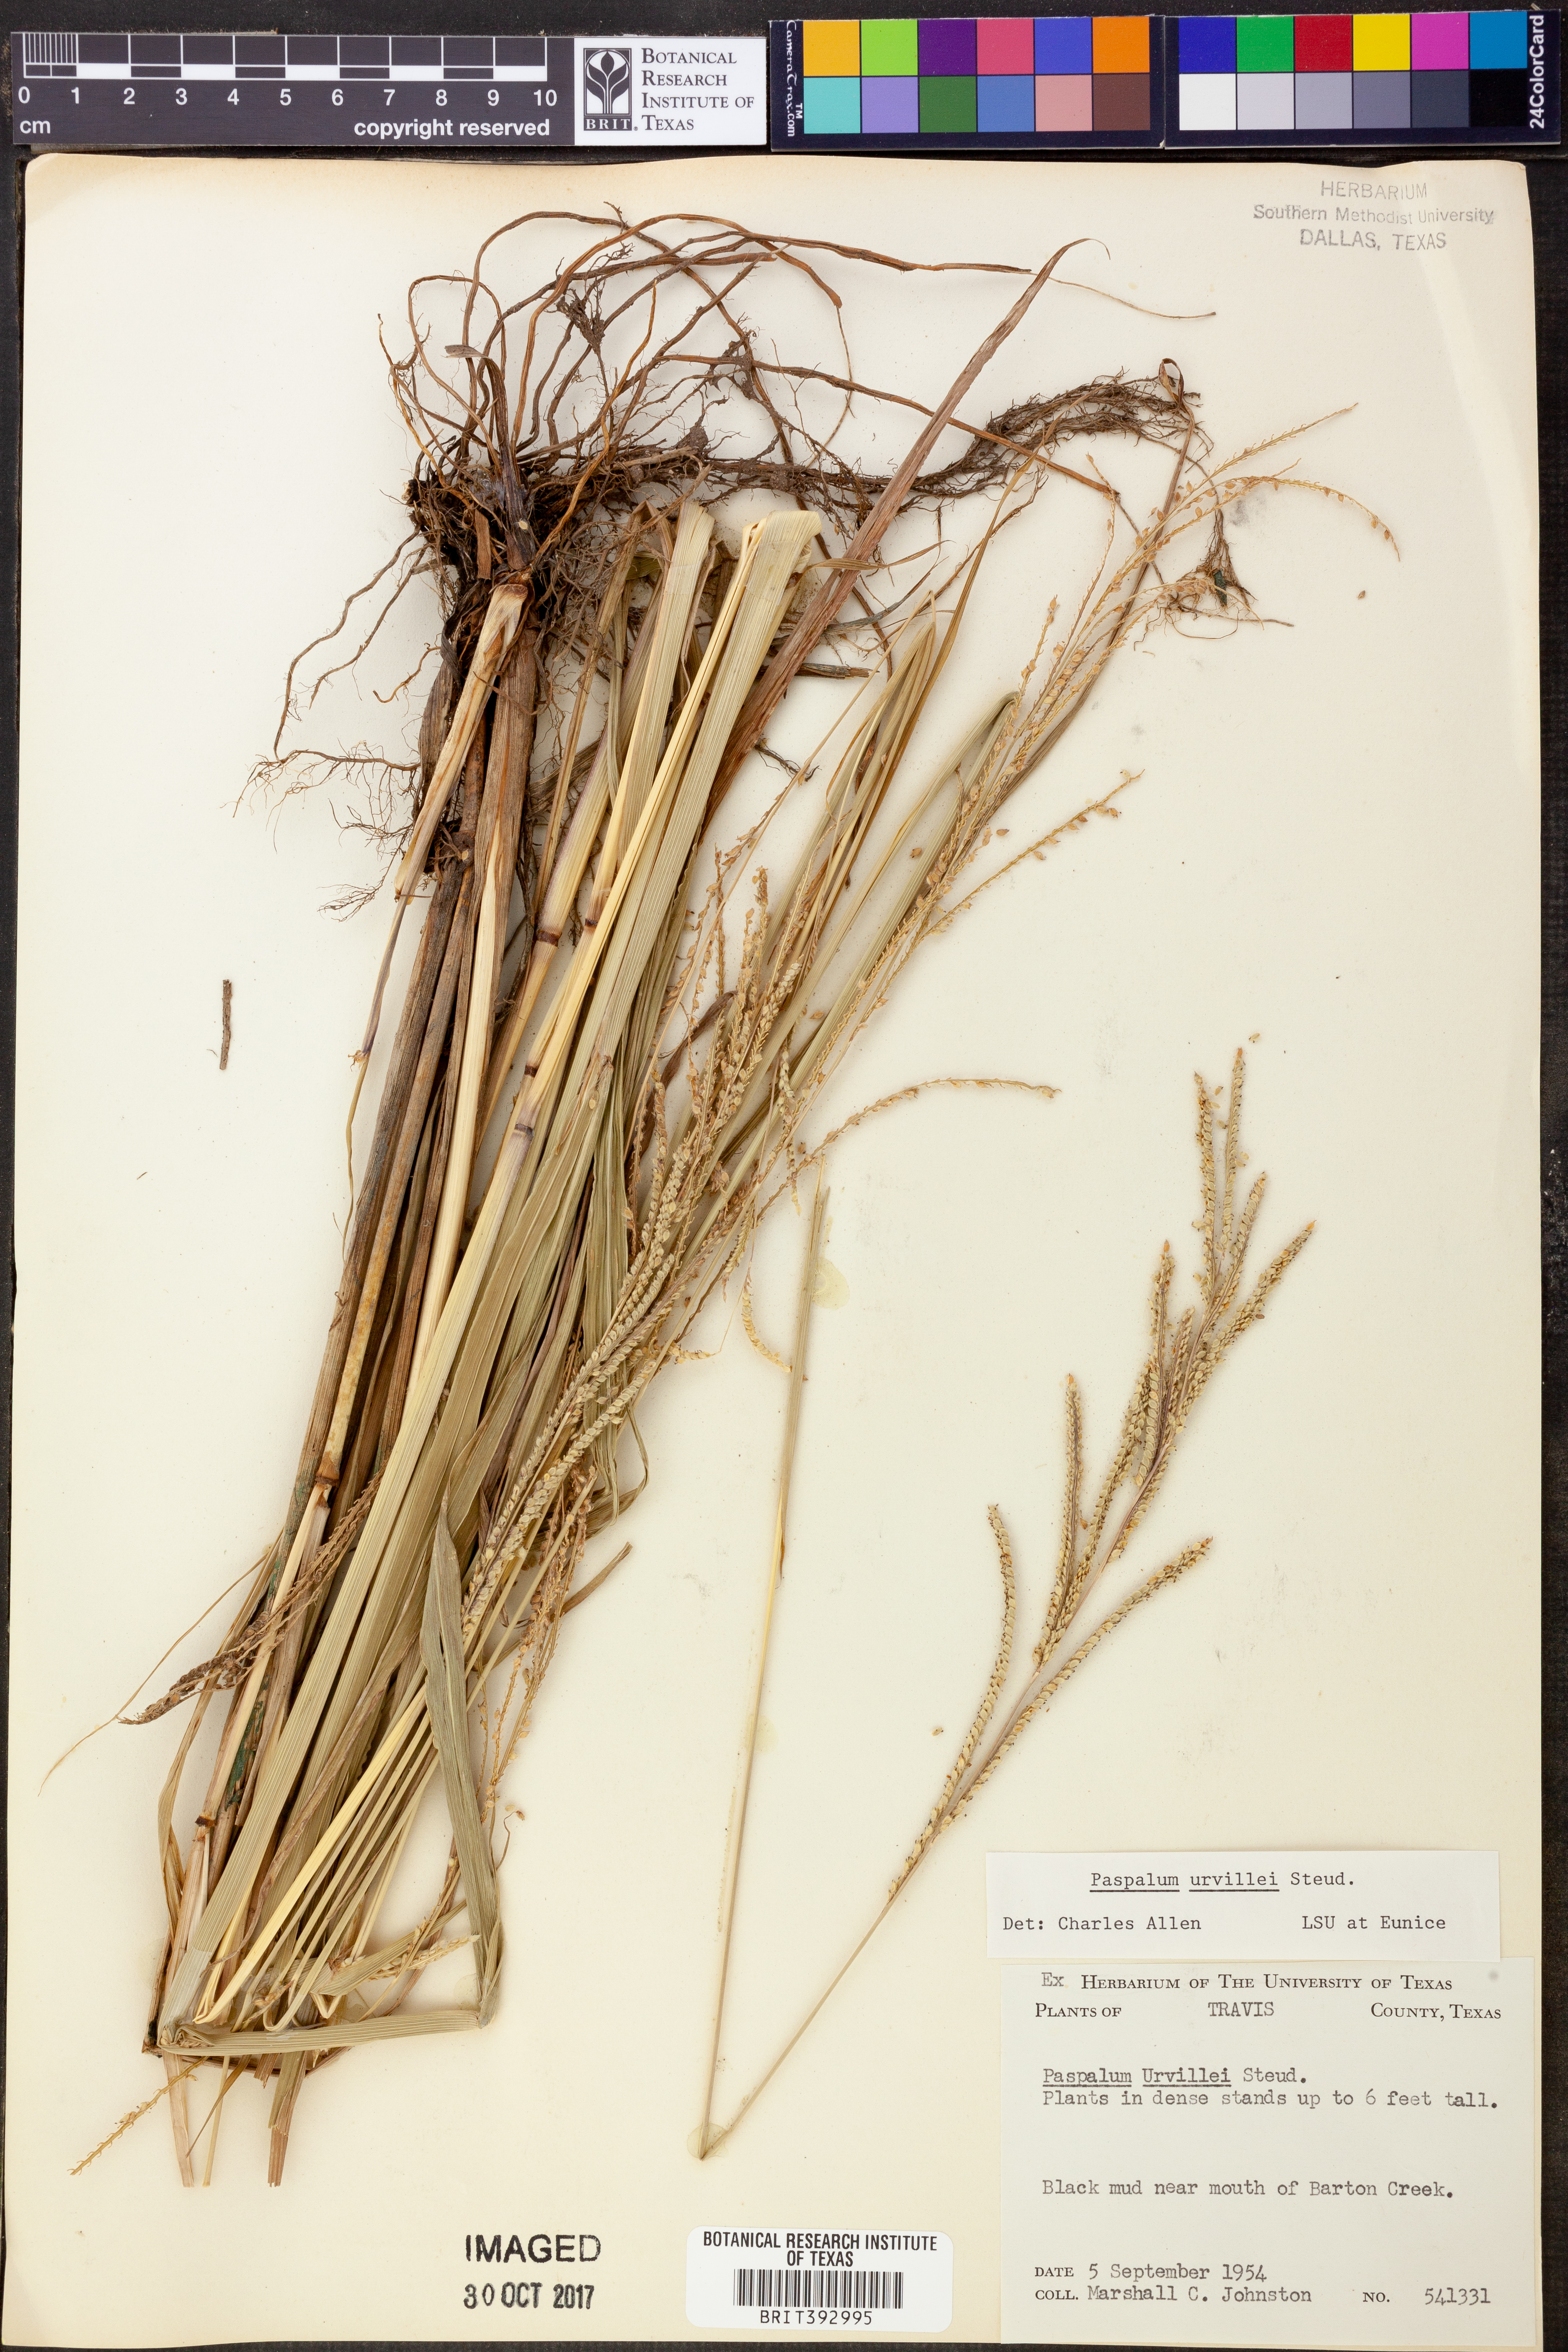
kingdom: Plantae
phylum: Tracheophyta
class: Liliopsida
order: Poales
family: Poaceae
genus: Paspalum
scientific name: Paspalum urvillei
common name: Vasey's grass
